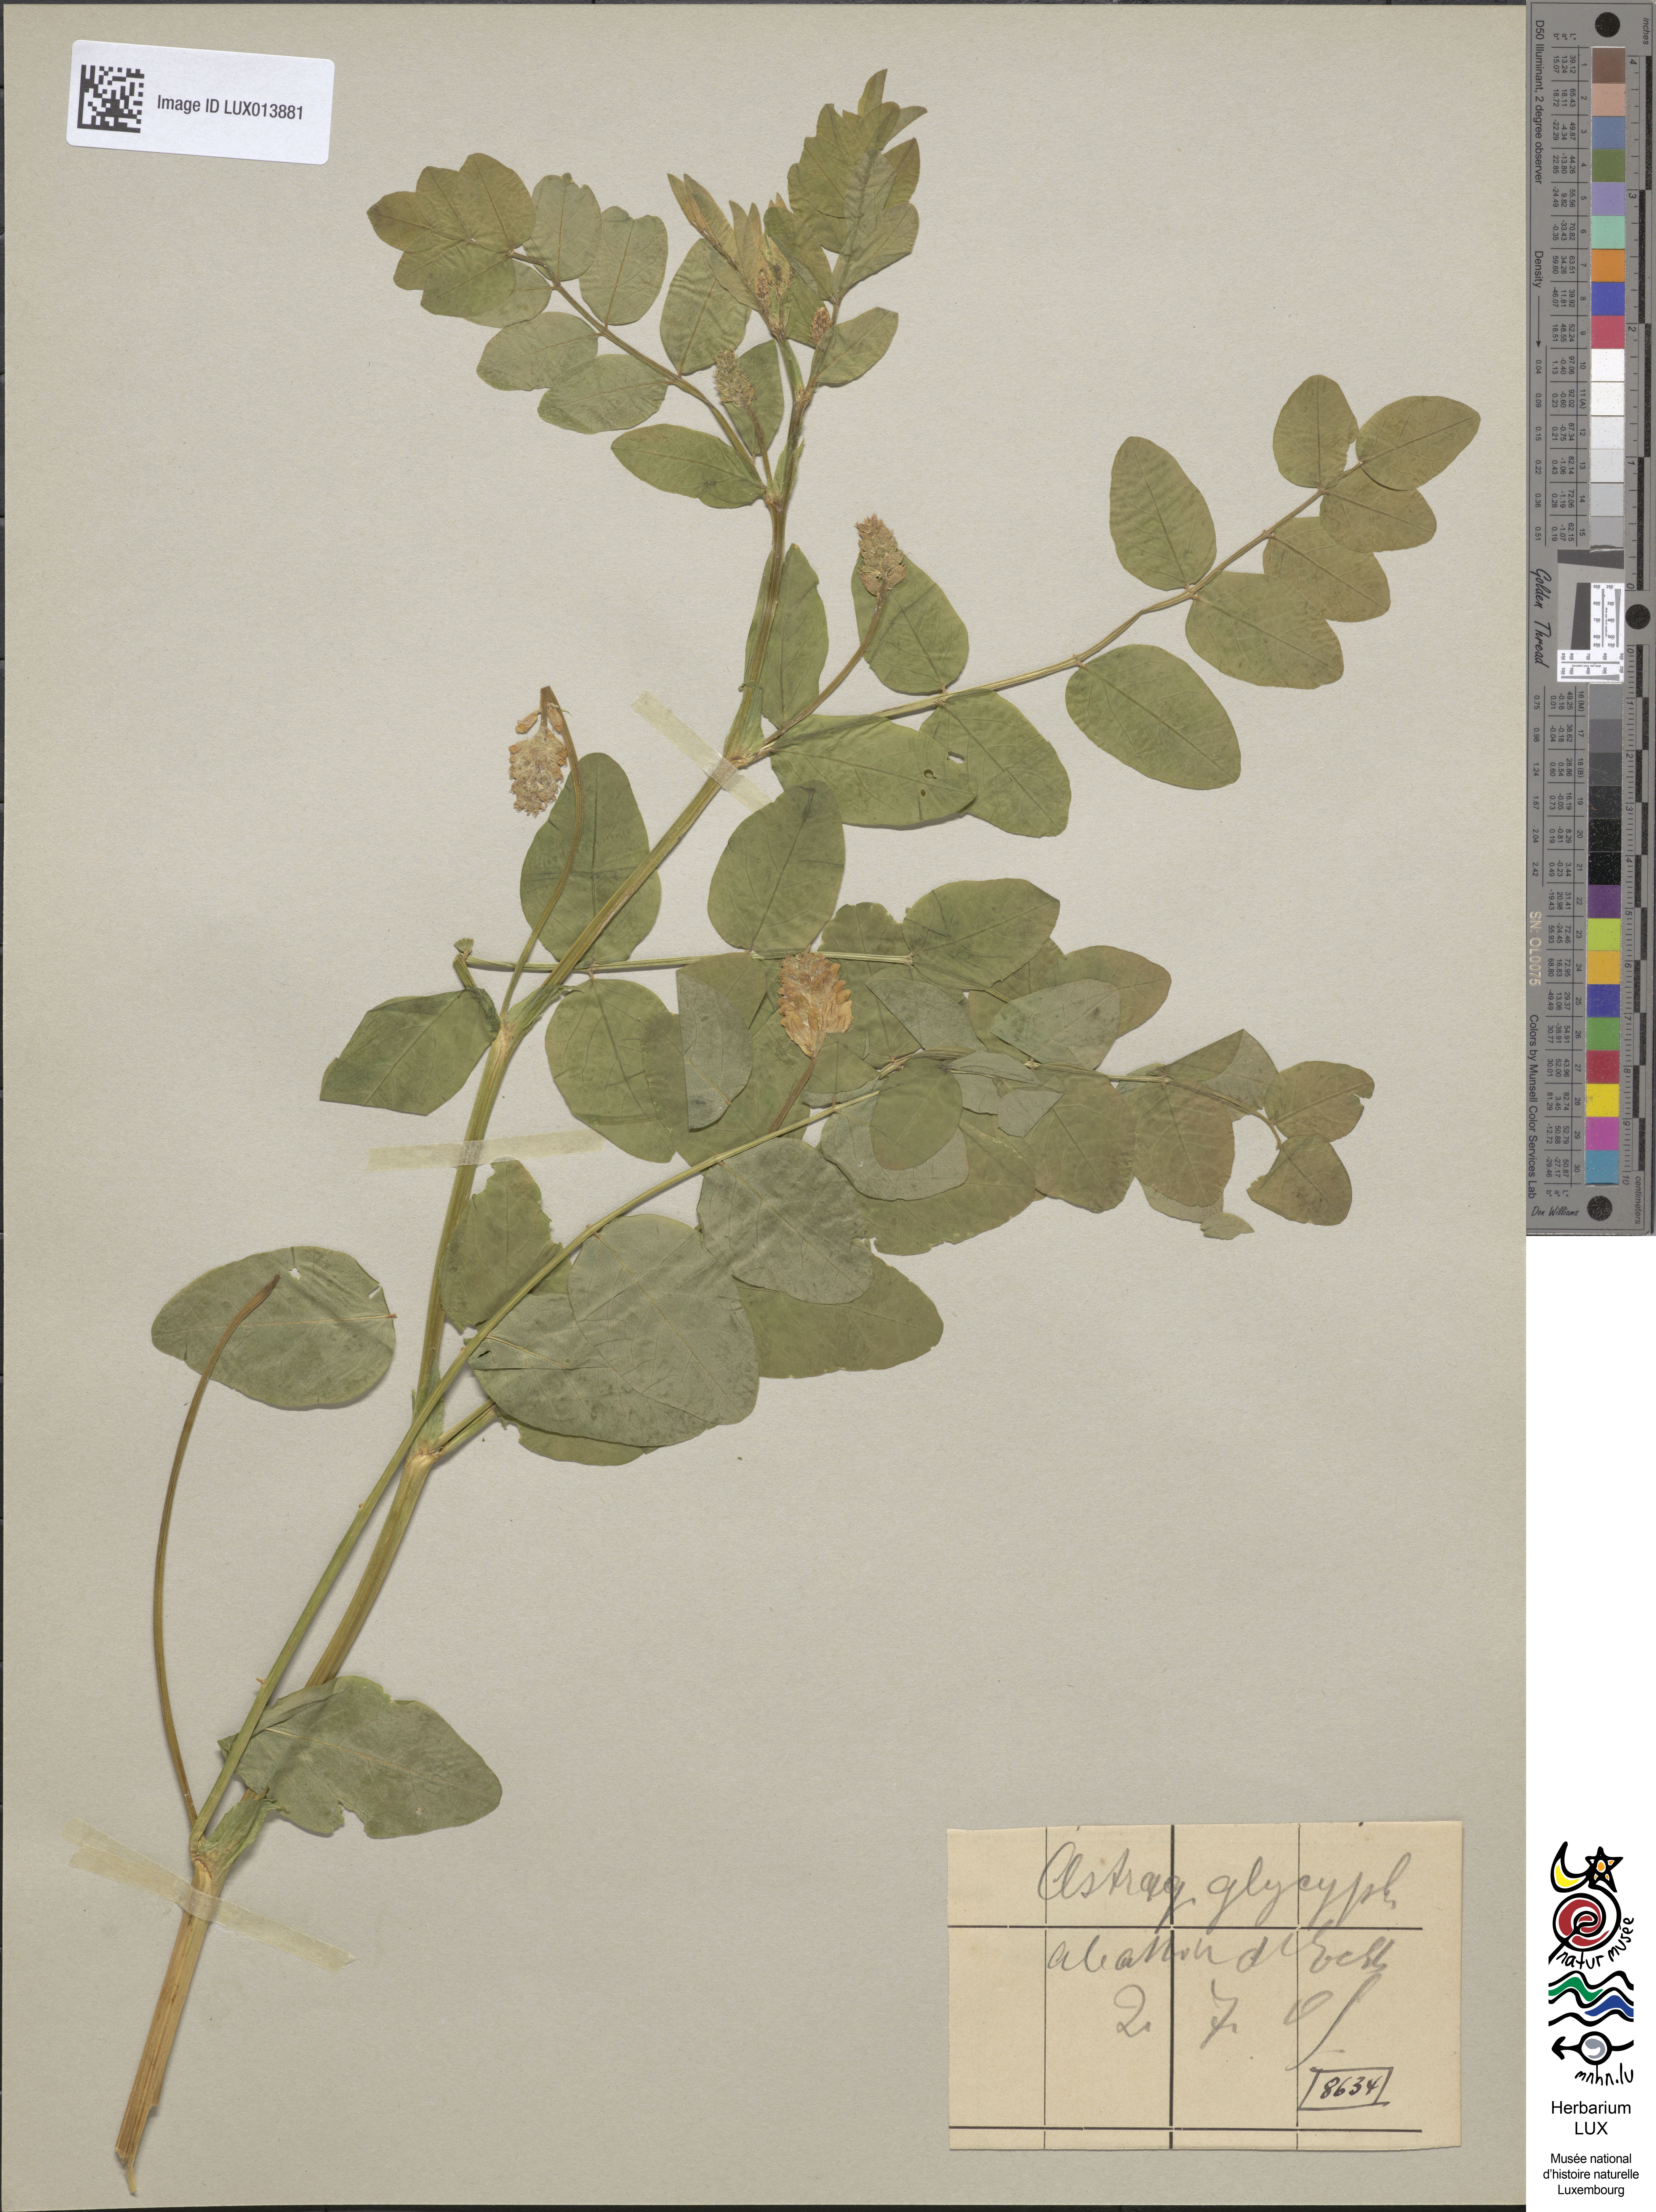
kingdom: Plantae
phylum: Tracheophyta
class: Magnoliopsida
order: Fabales
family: Fabaceae
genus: Astragalus
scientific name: Astragalus glycyphyllos
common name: Wild liquorice
